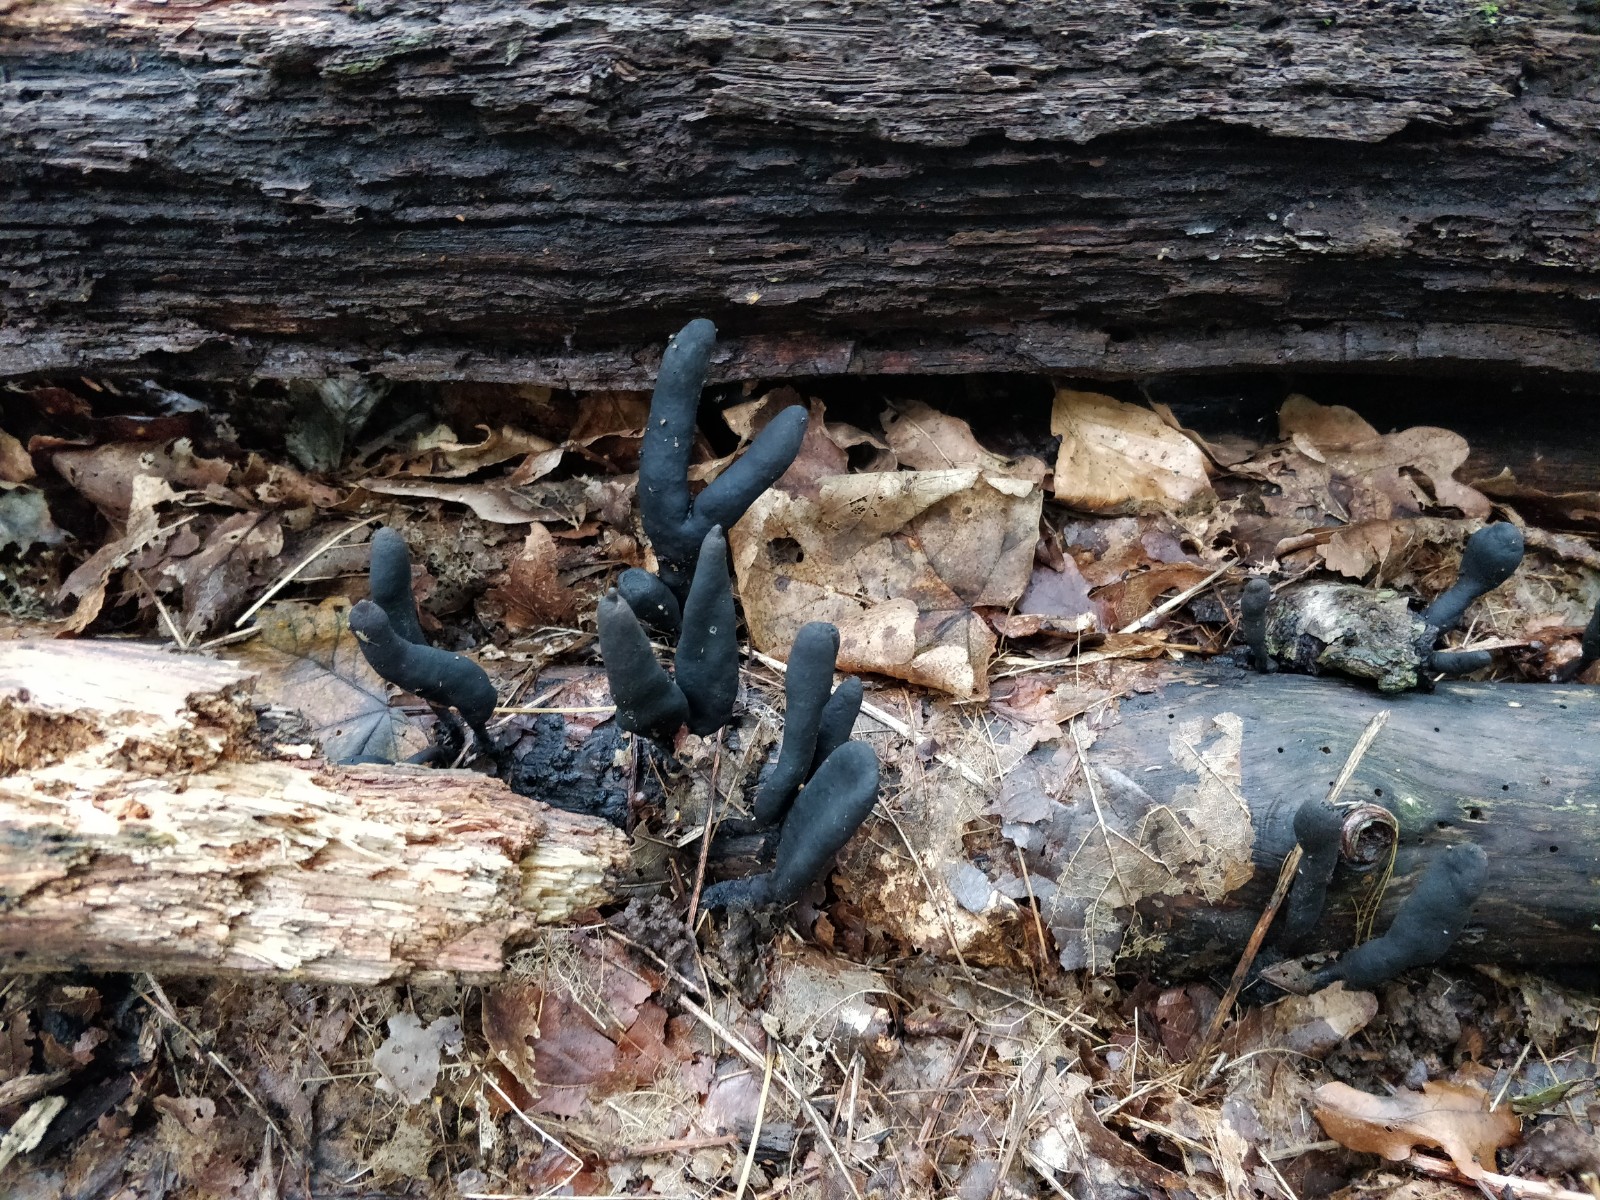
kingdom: Fungi
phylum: Ascomycota
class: Sordariomycetes
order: Xylariales
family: Xylariaceae
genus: Xylaria
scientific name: Xylaria longipes
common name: slank stødsvamp
